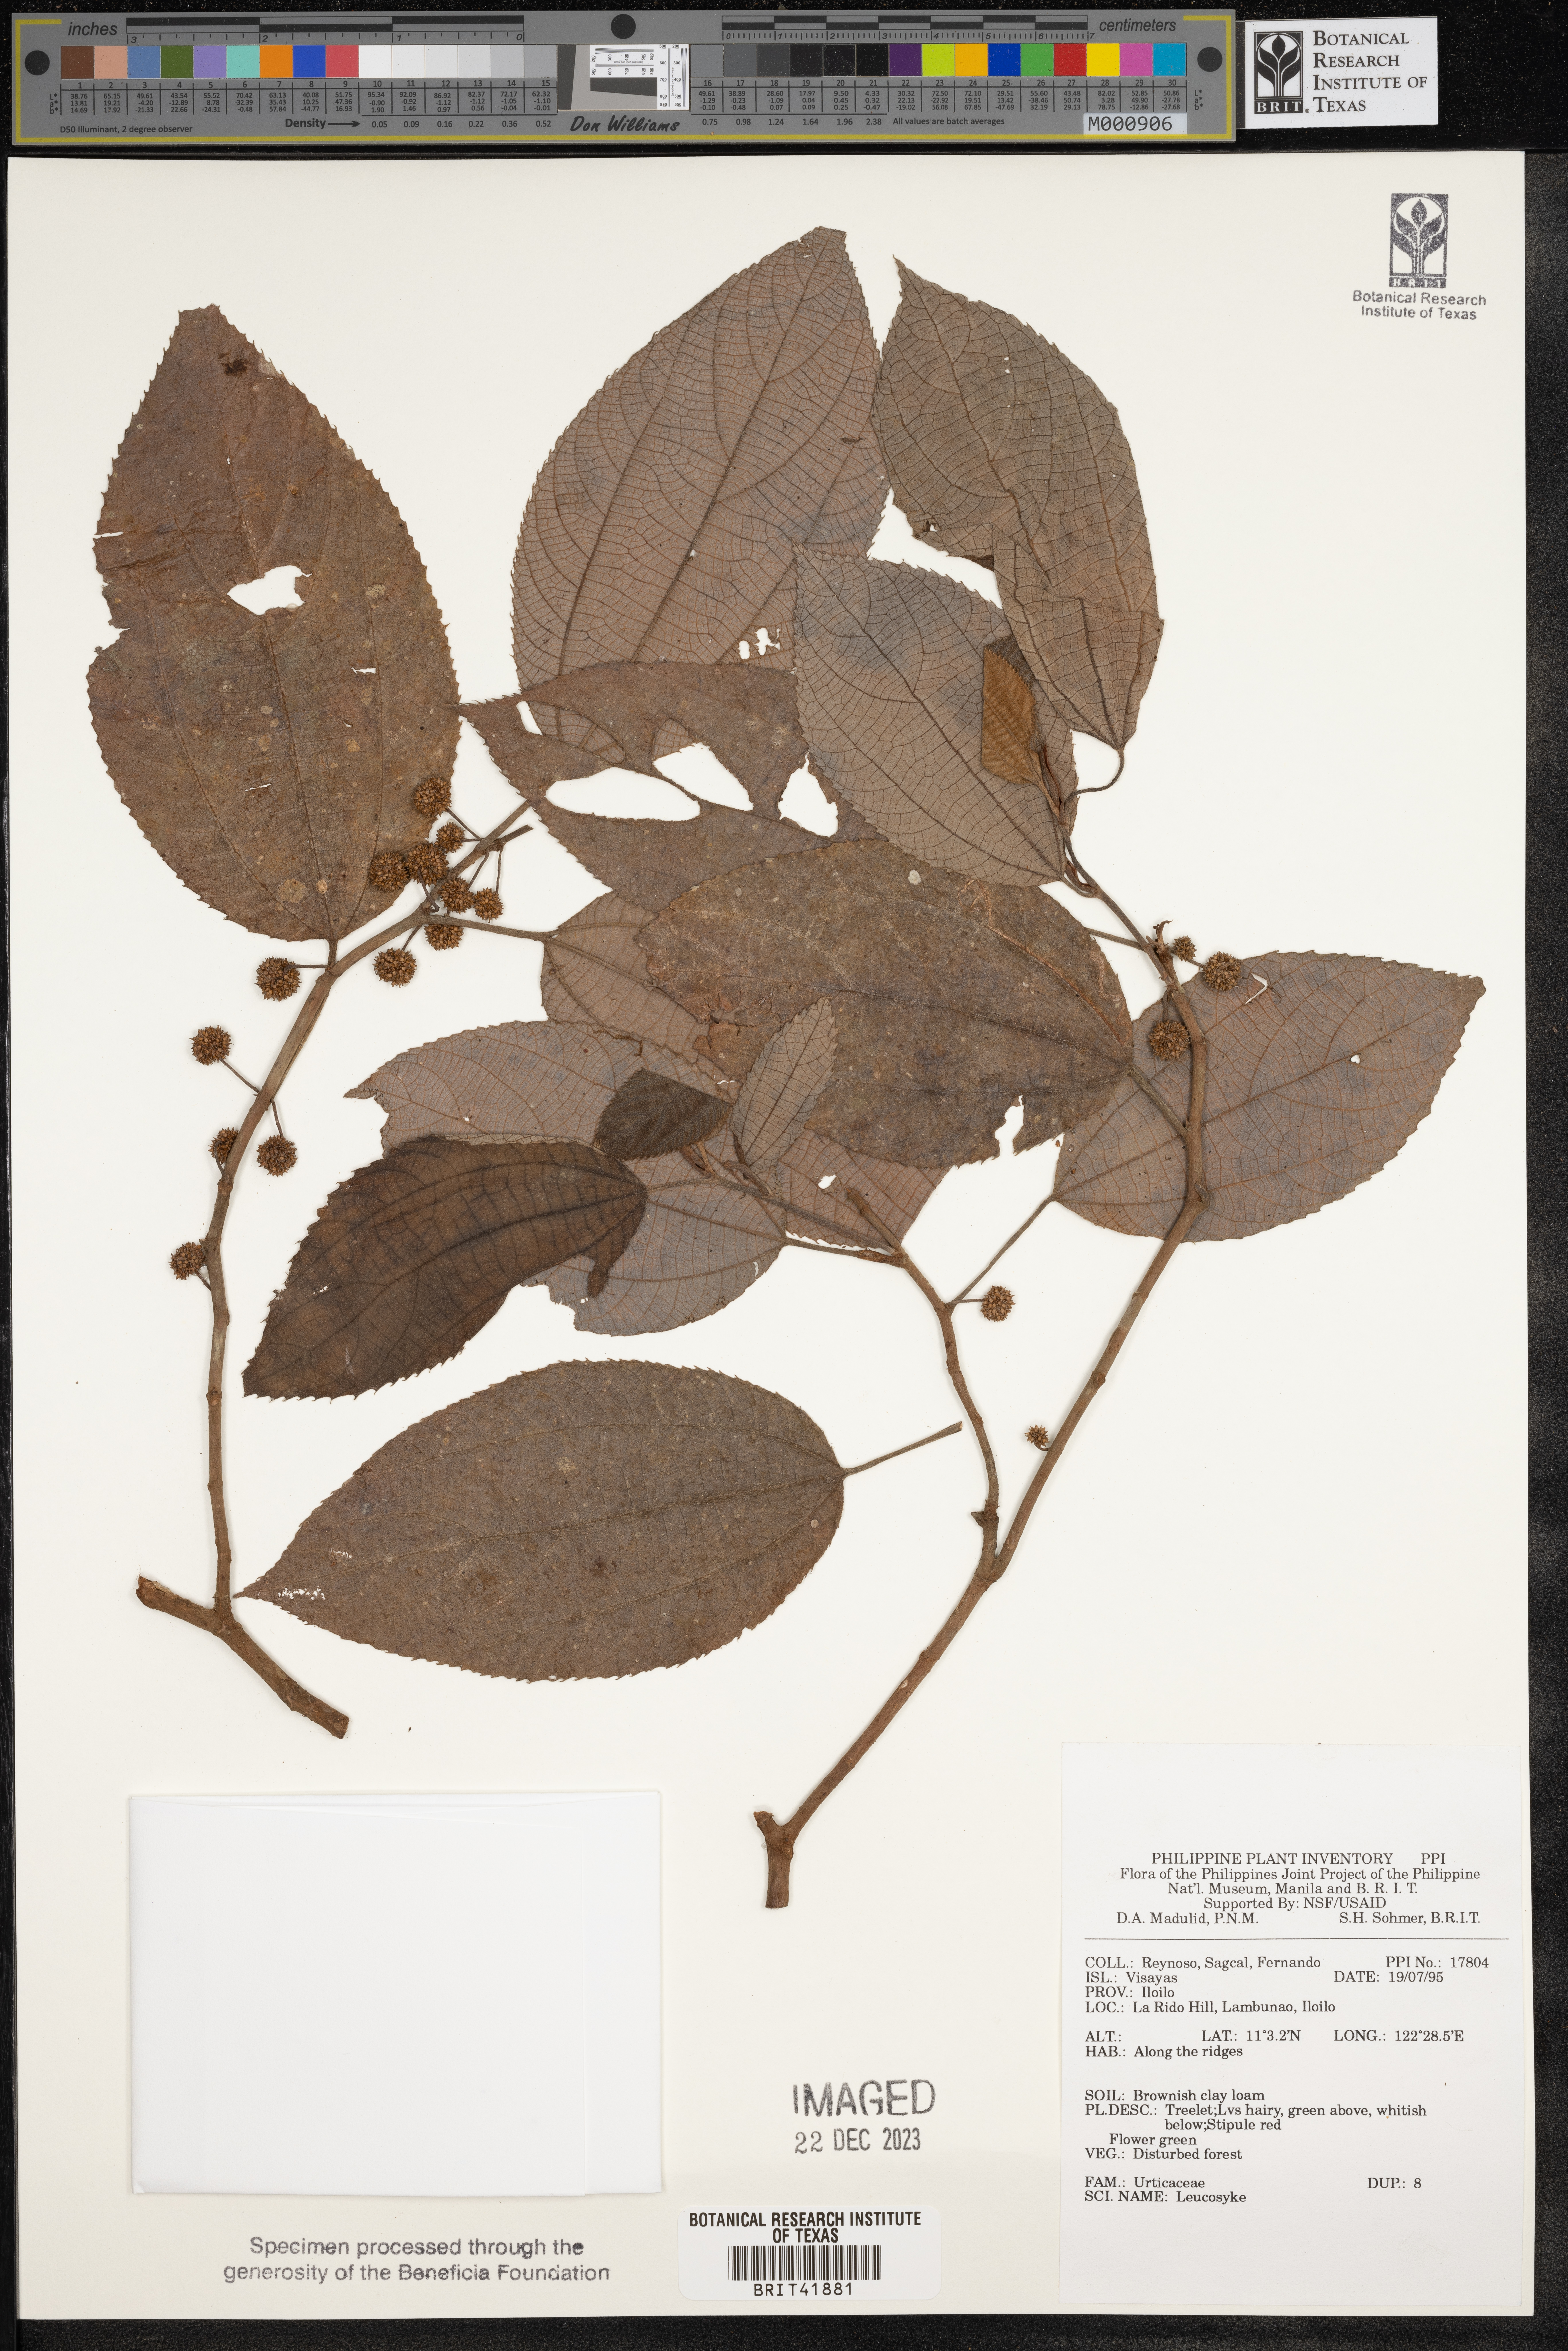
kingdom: Plantae
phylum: Tracheophyta
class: Magnoliopsida
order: Rosales
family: Urticaceae
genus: Leucosyke
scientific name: Leucosyke
